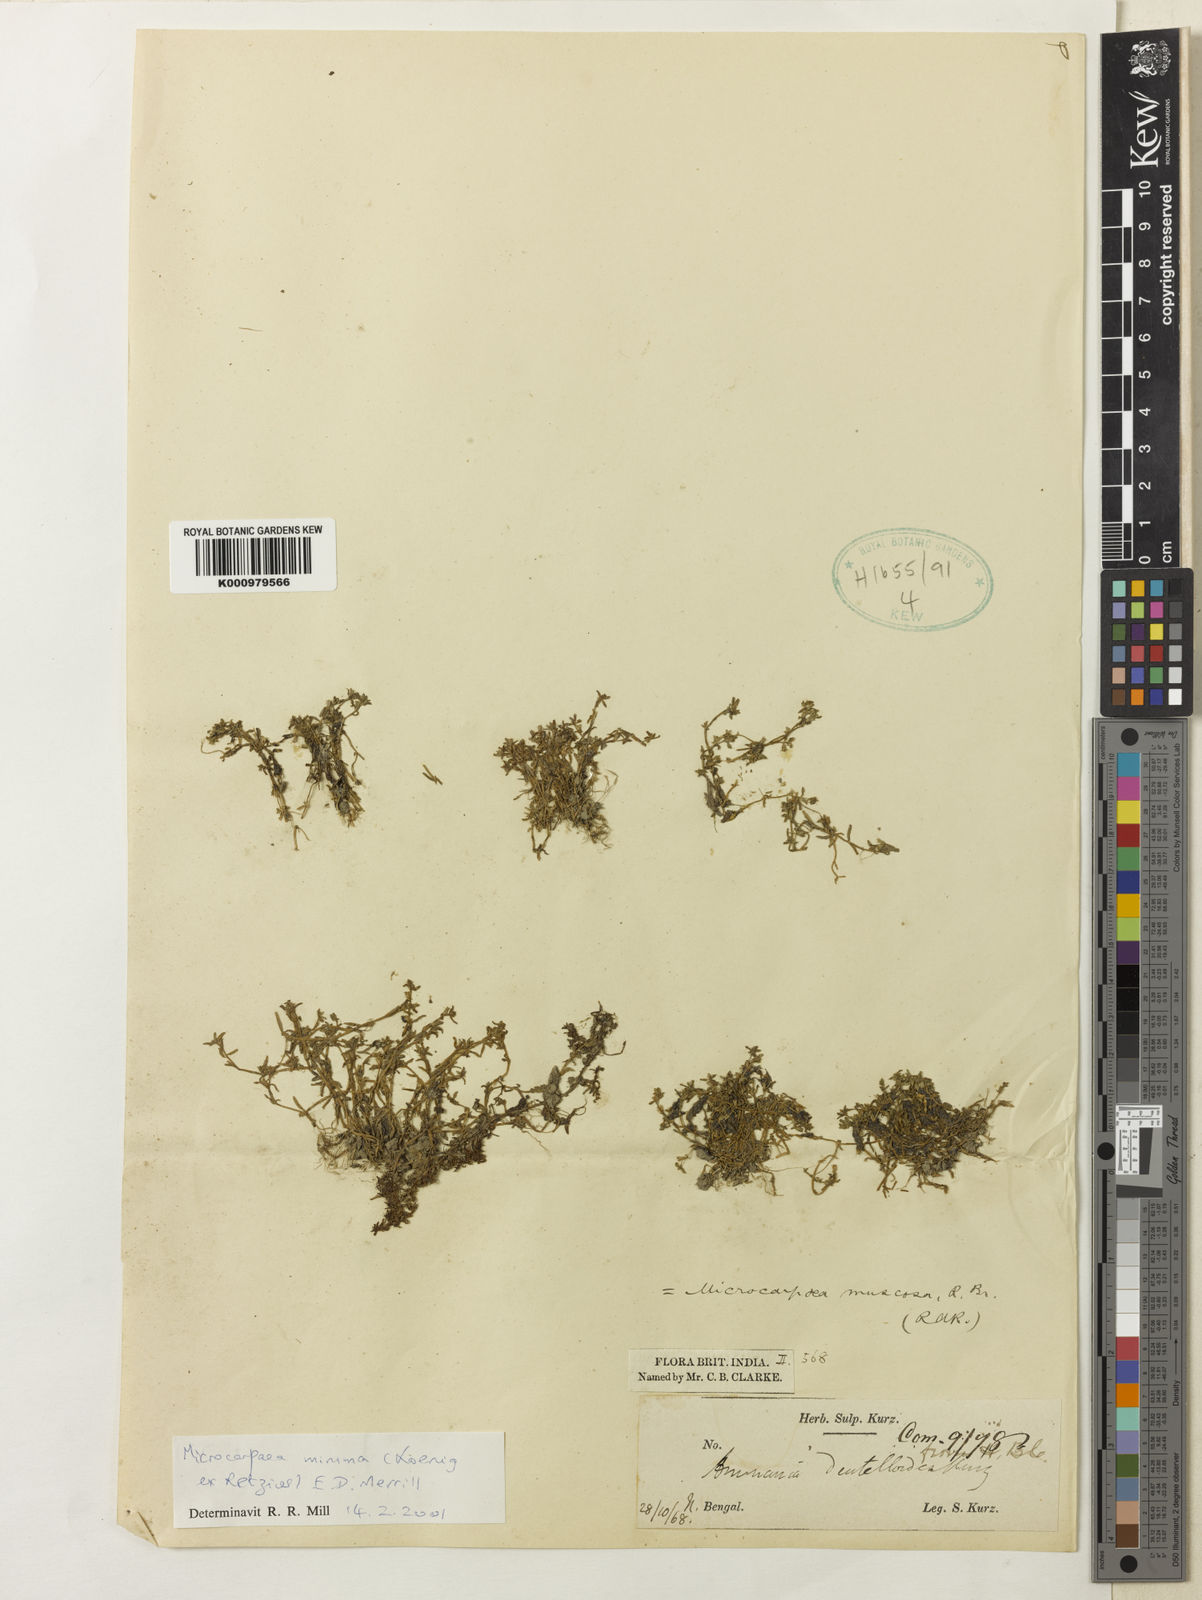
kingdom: Plantae
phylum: Tracheophyta
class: Magnoliopsida
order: Lamiales
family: Phrymaceae
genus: Microcarpaea
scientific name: Microcarpaea minima
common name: Chickweed sparrow
